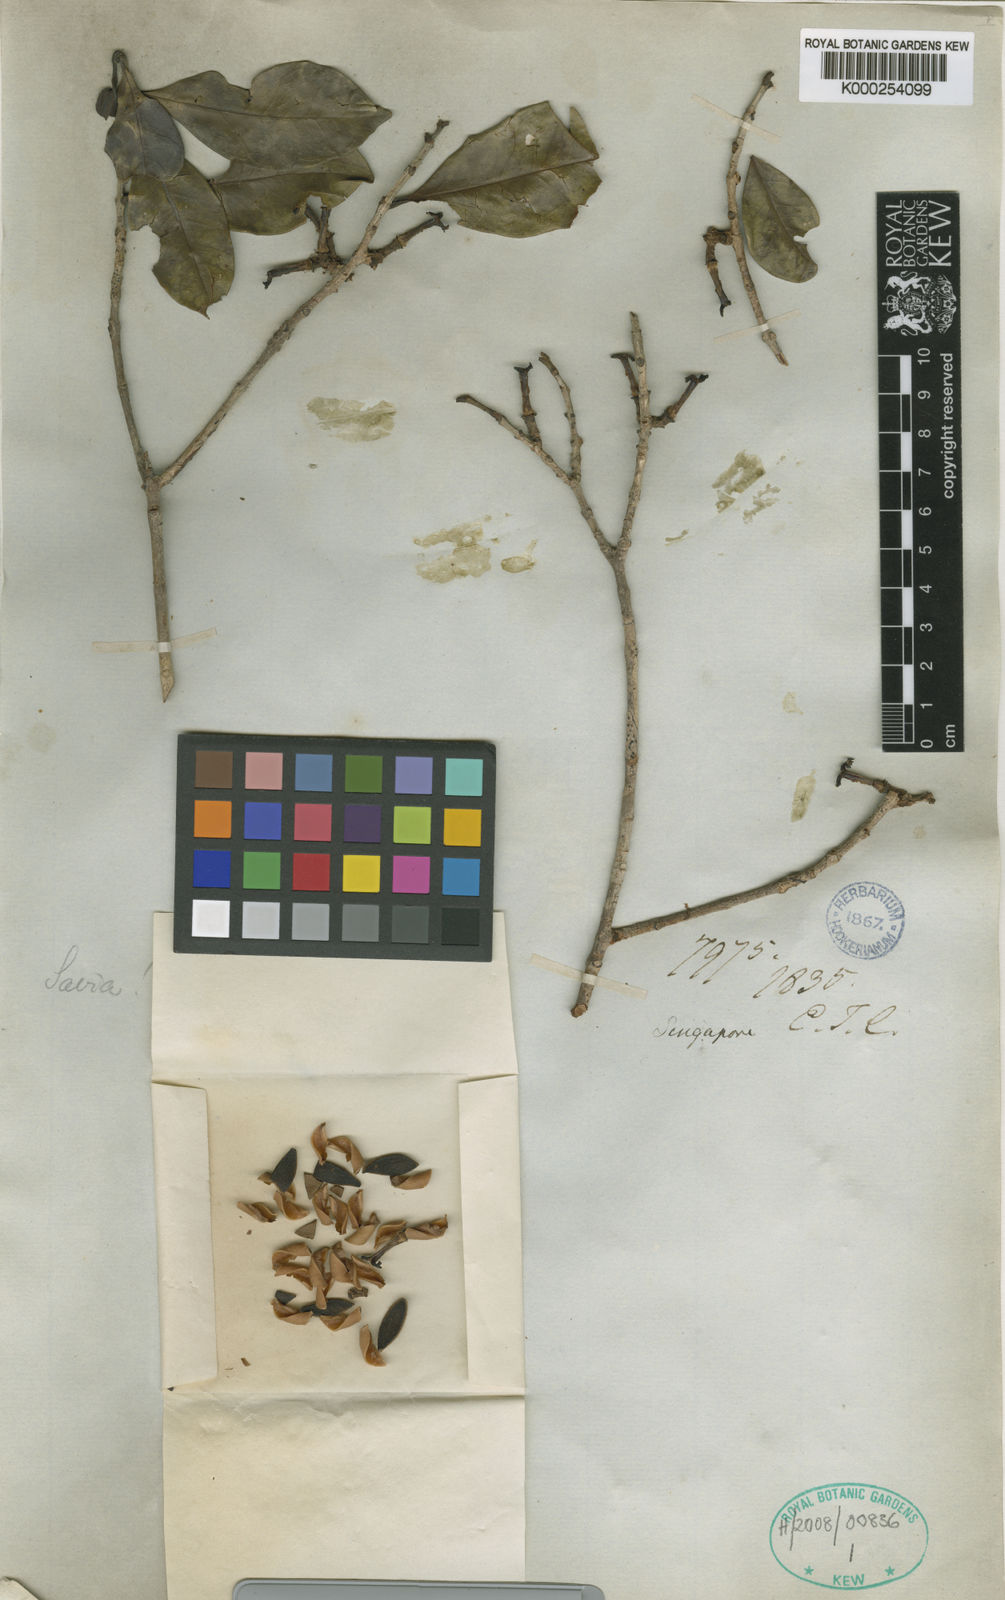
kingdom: Plantae
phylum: Tracheophyta
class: Magnoliopsida
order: Malpighiales
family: Picrodendraceae
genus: Austrobuxus
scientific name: Austrobuxus nitidus
